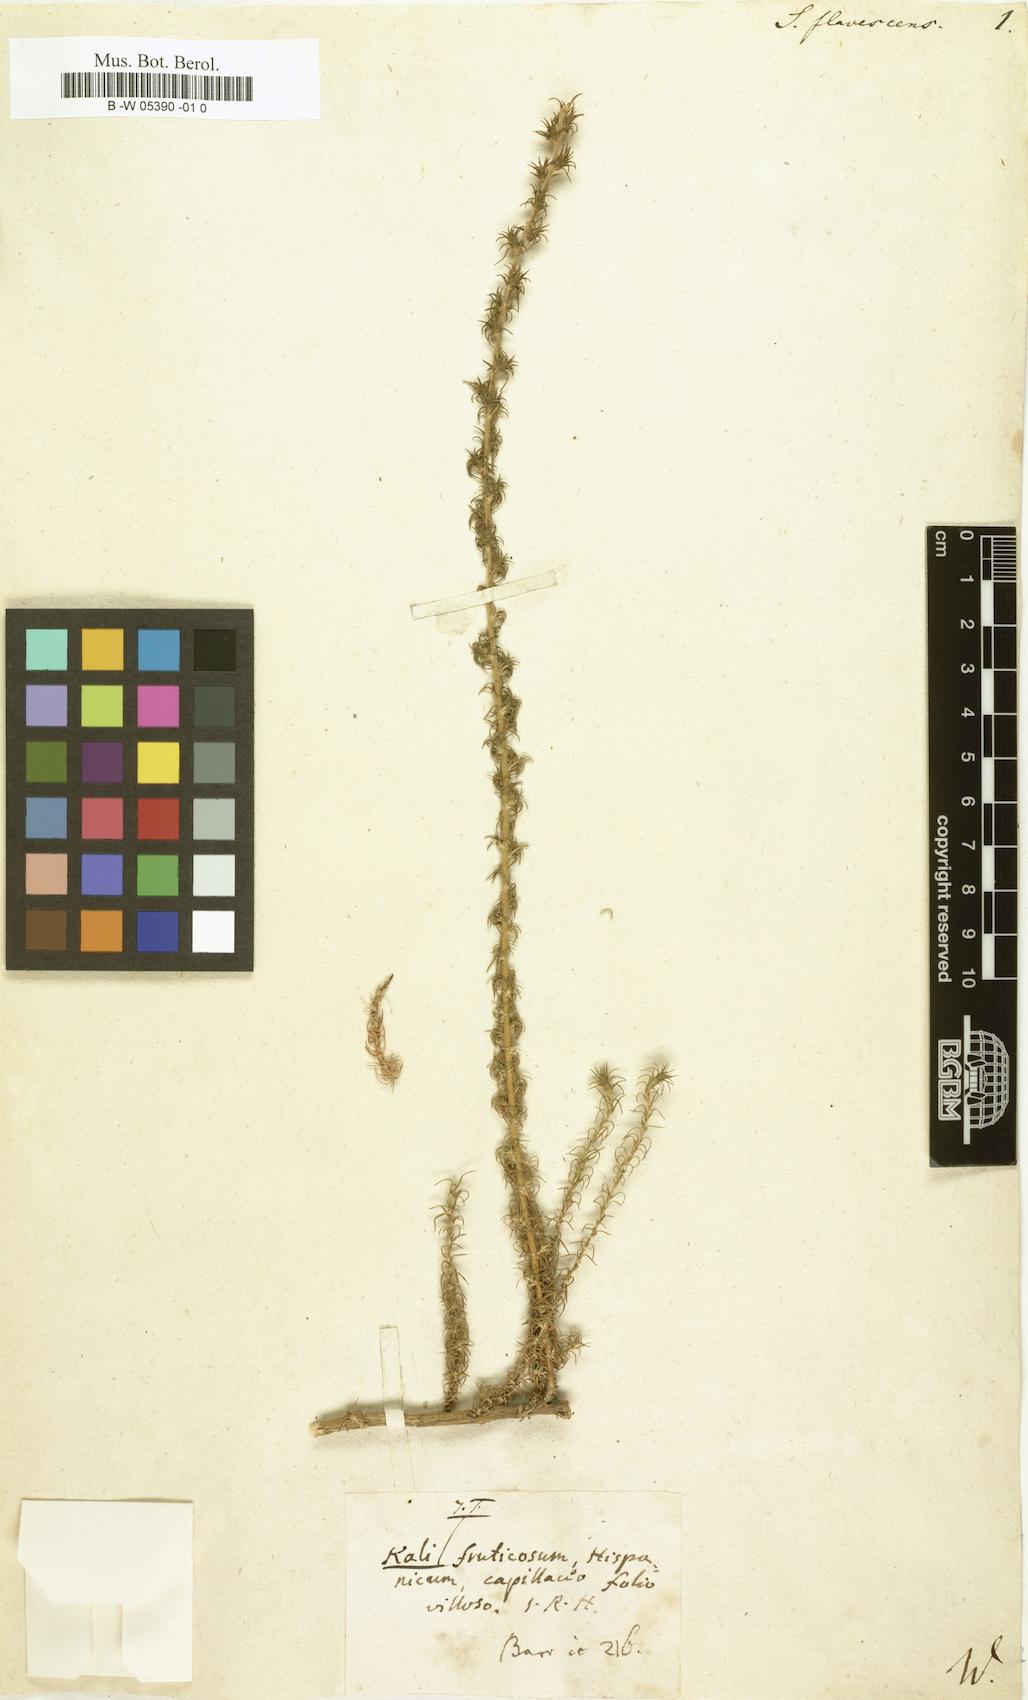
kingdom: Plantae
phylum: Tracheophyta
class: Magnoliopsida
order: Caryophyllales
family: Amaranthaceae
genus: Nitrosalsola
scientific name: Nitrosalsola vermiculata
